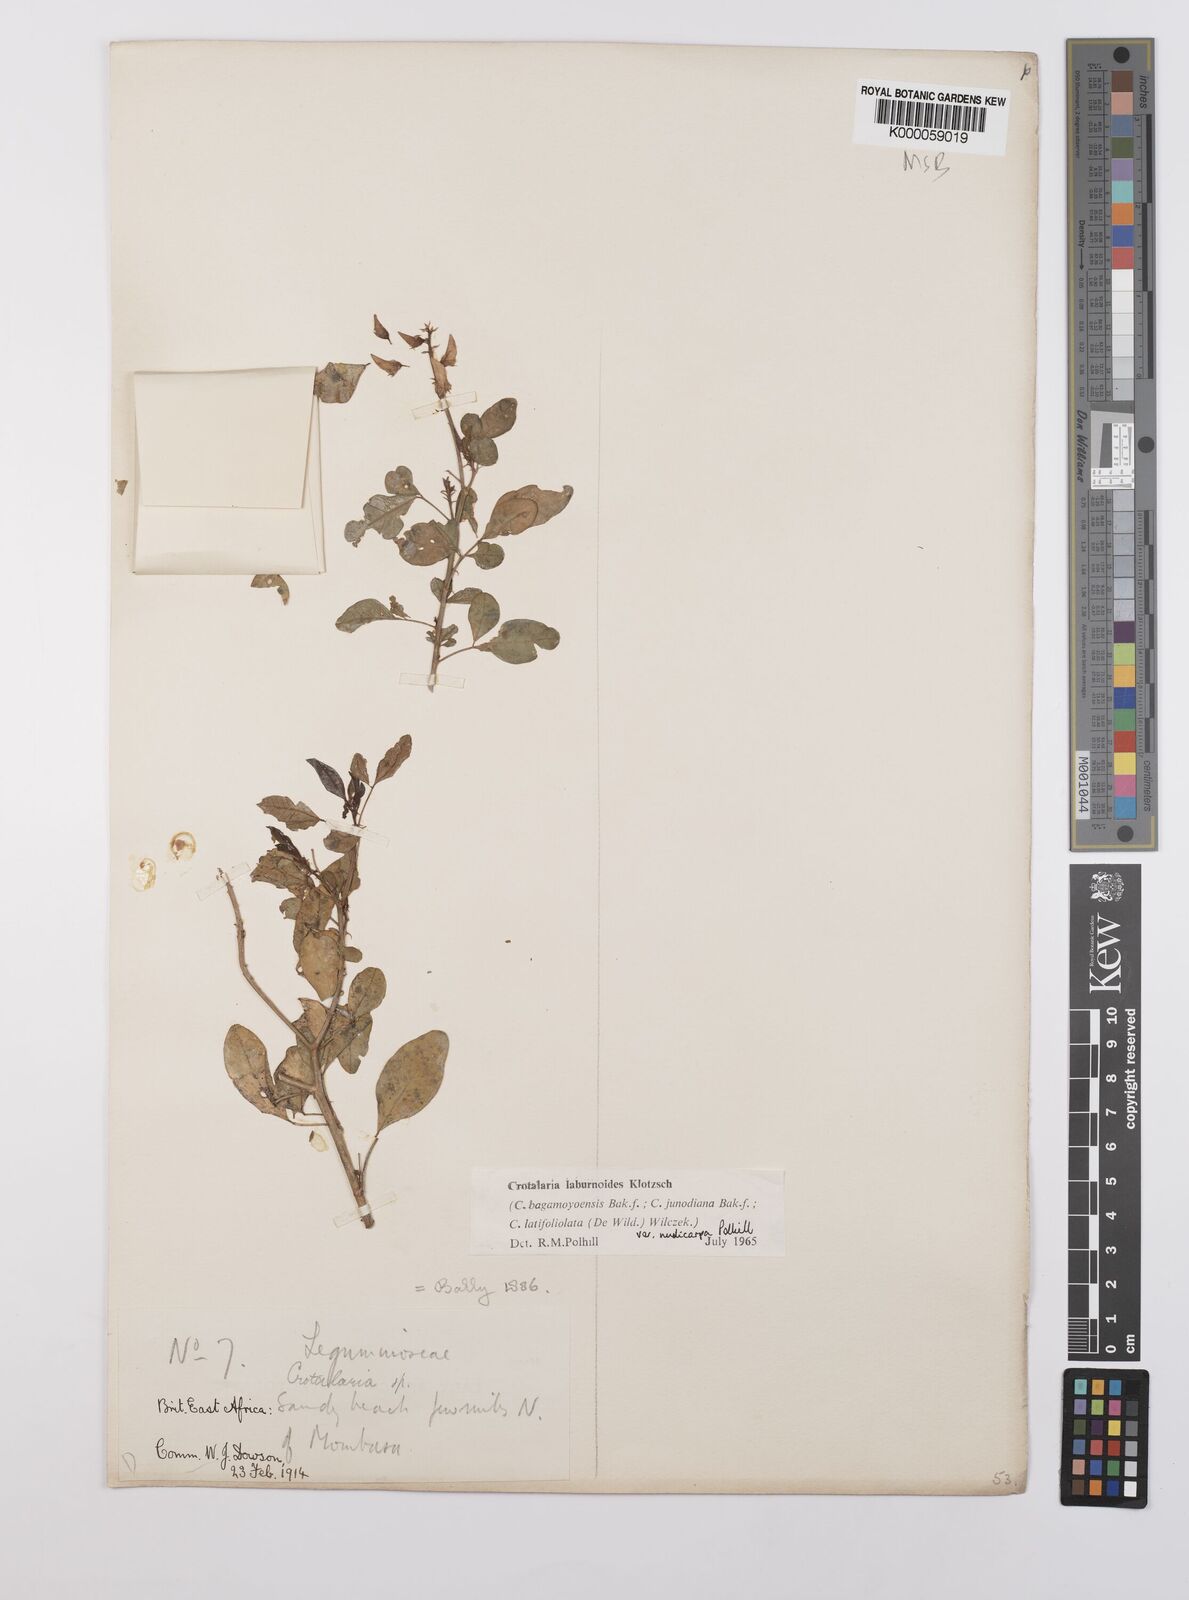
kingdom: Plantae
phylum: Tracheophyta
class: Magnoliopsida
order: Fabales
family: Fabaceae
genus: Crotalaria
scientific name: Crotalaria laburnoides
